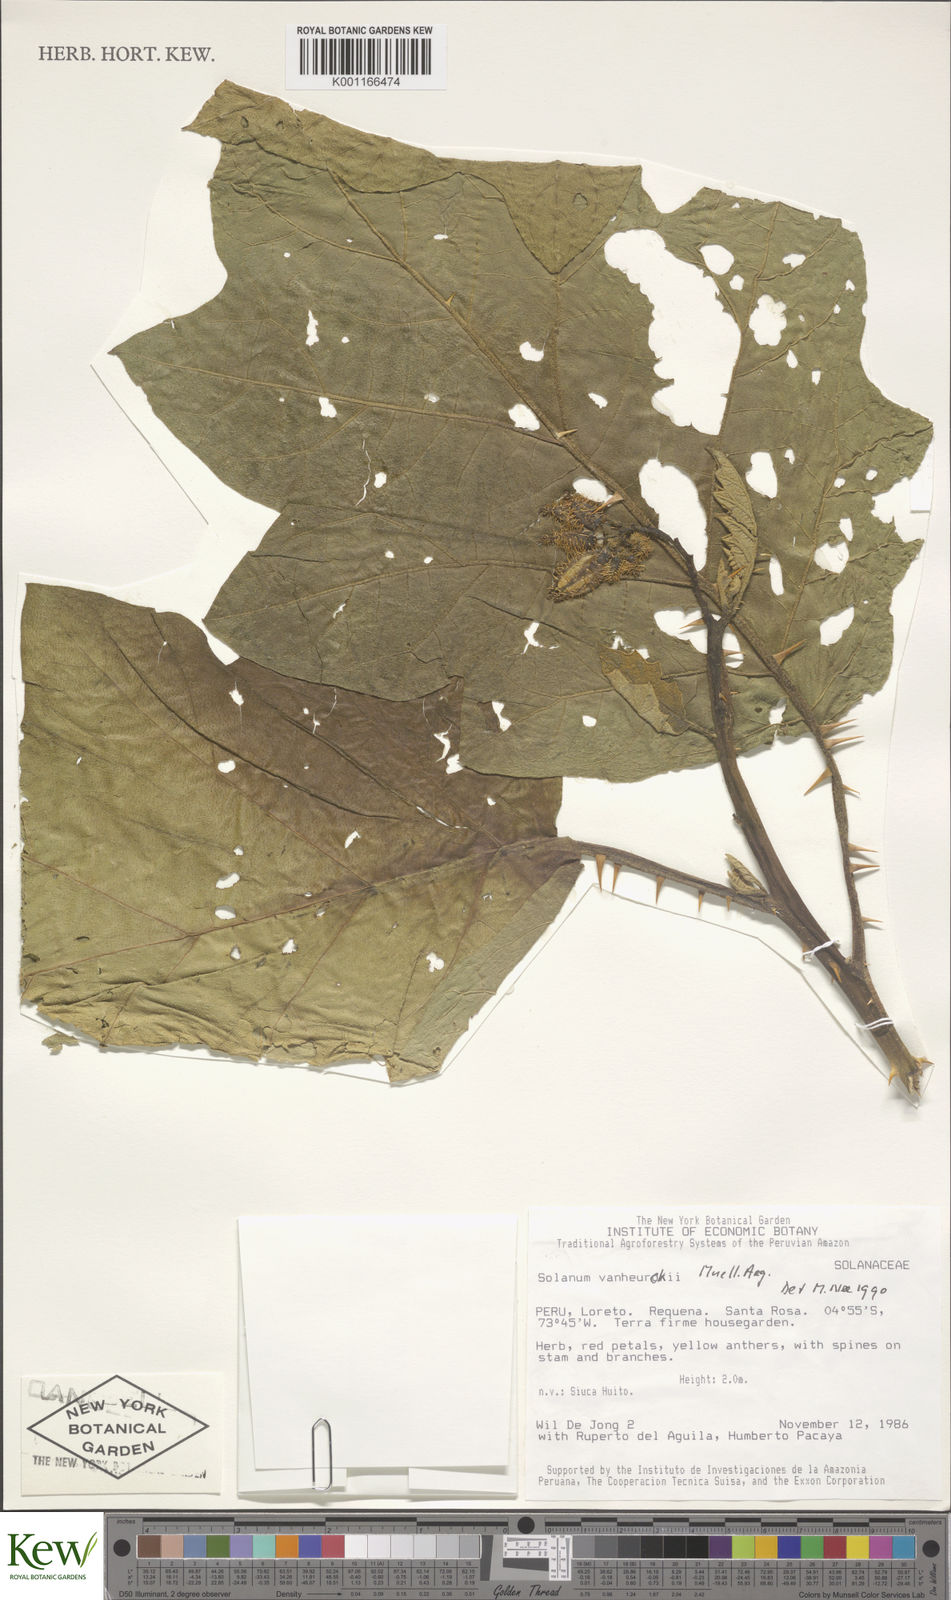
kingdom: Plantae
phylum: Tracheophyta
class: Magnoliopsida
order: Solanales
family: Solanaceae
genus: Solanum
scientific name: Solanum
